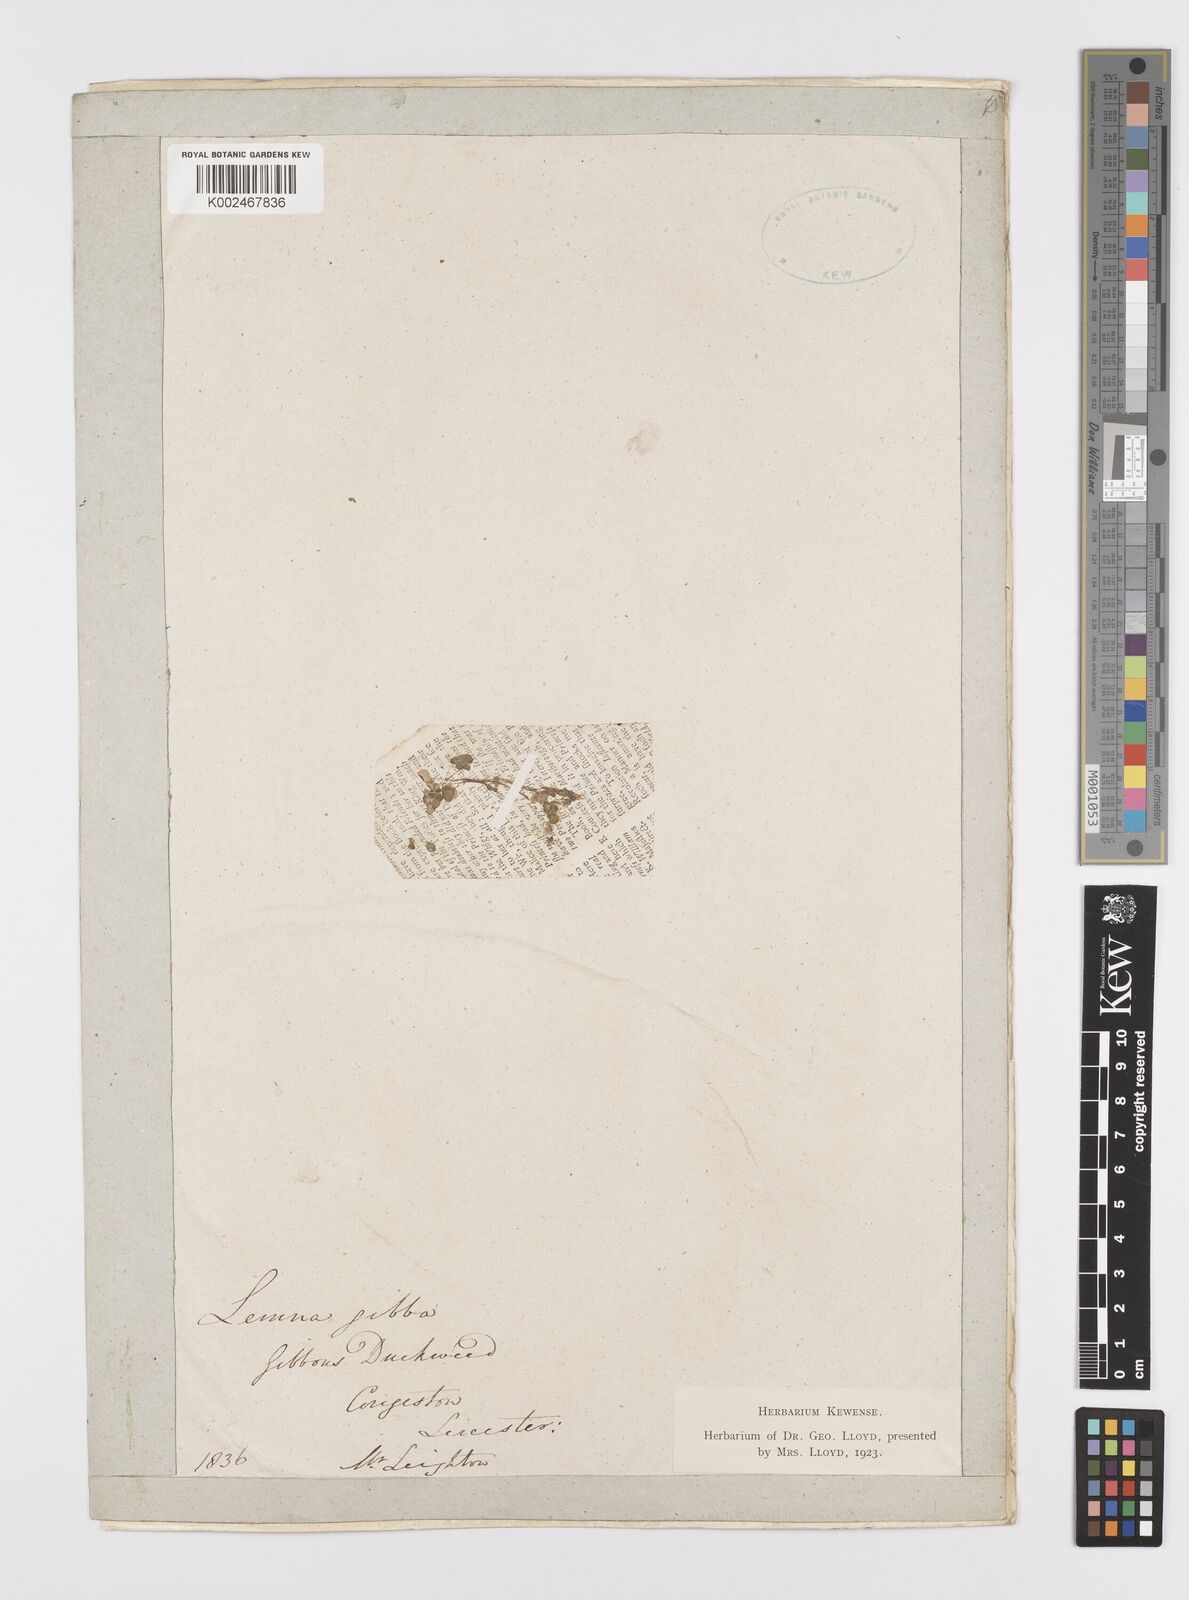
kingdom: Plantae
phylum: Tracheophyta
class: Liliopsida
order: Alismatales
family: Araceae
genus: Lemna
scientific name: Lemna gibba
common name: Fat duckweed
